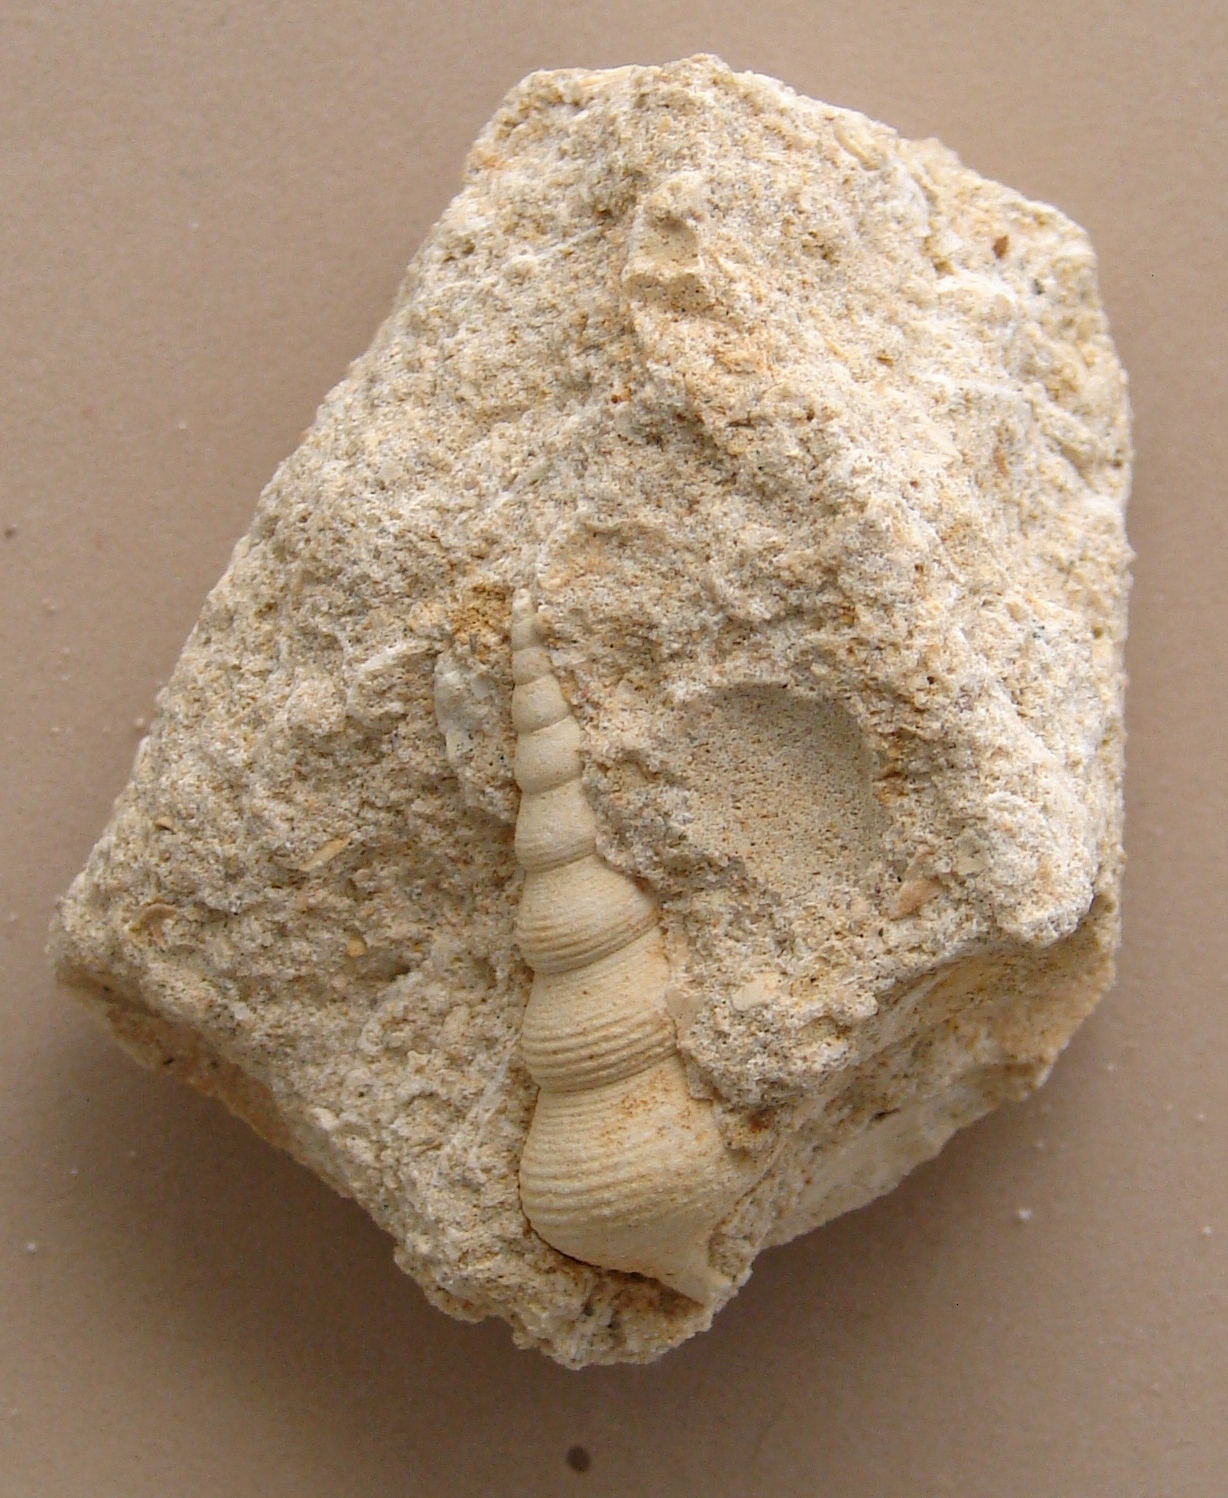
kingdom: Animalia
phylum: Mollusca
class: Gastropoda
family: Pseudomelaniidae
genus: Bourgetia
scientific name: Bourgetia
